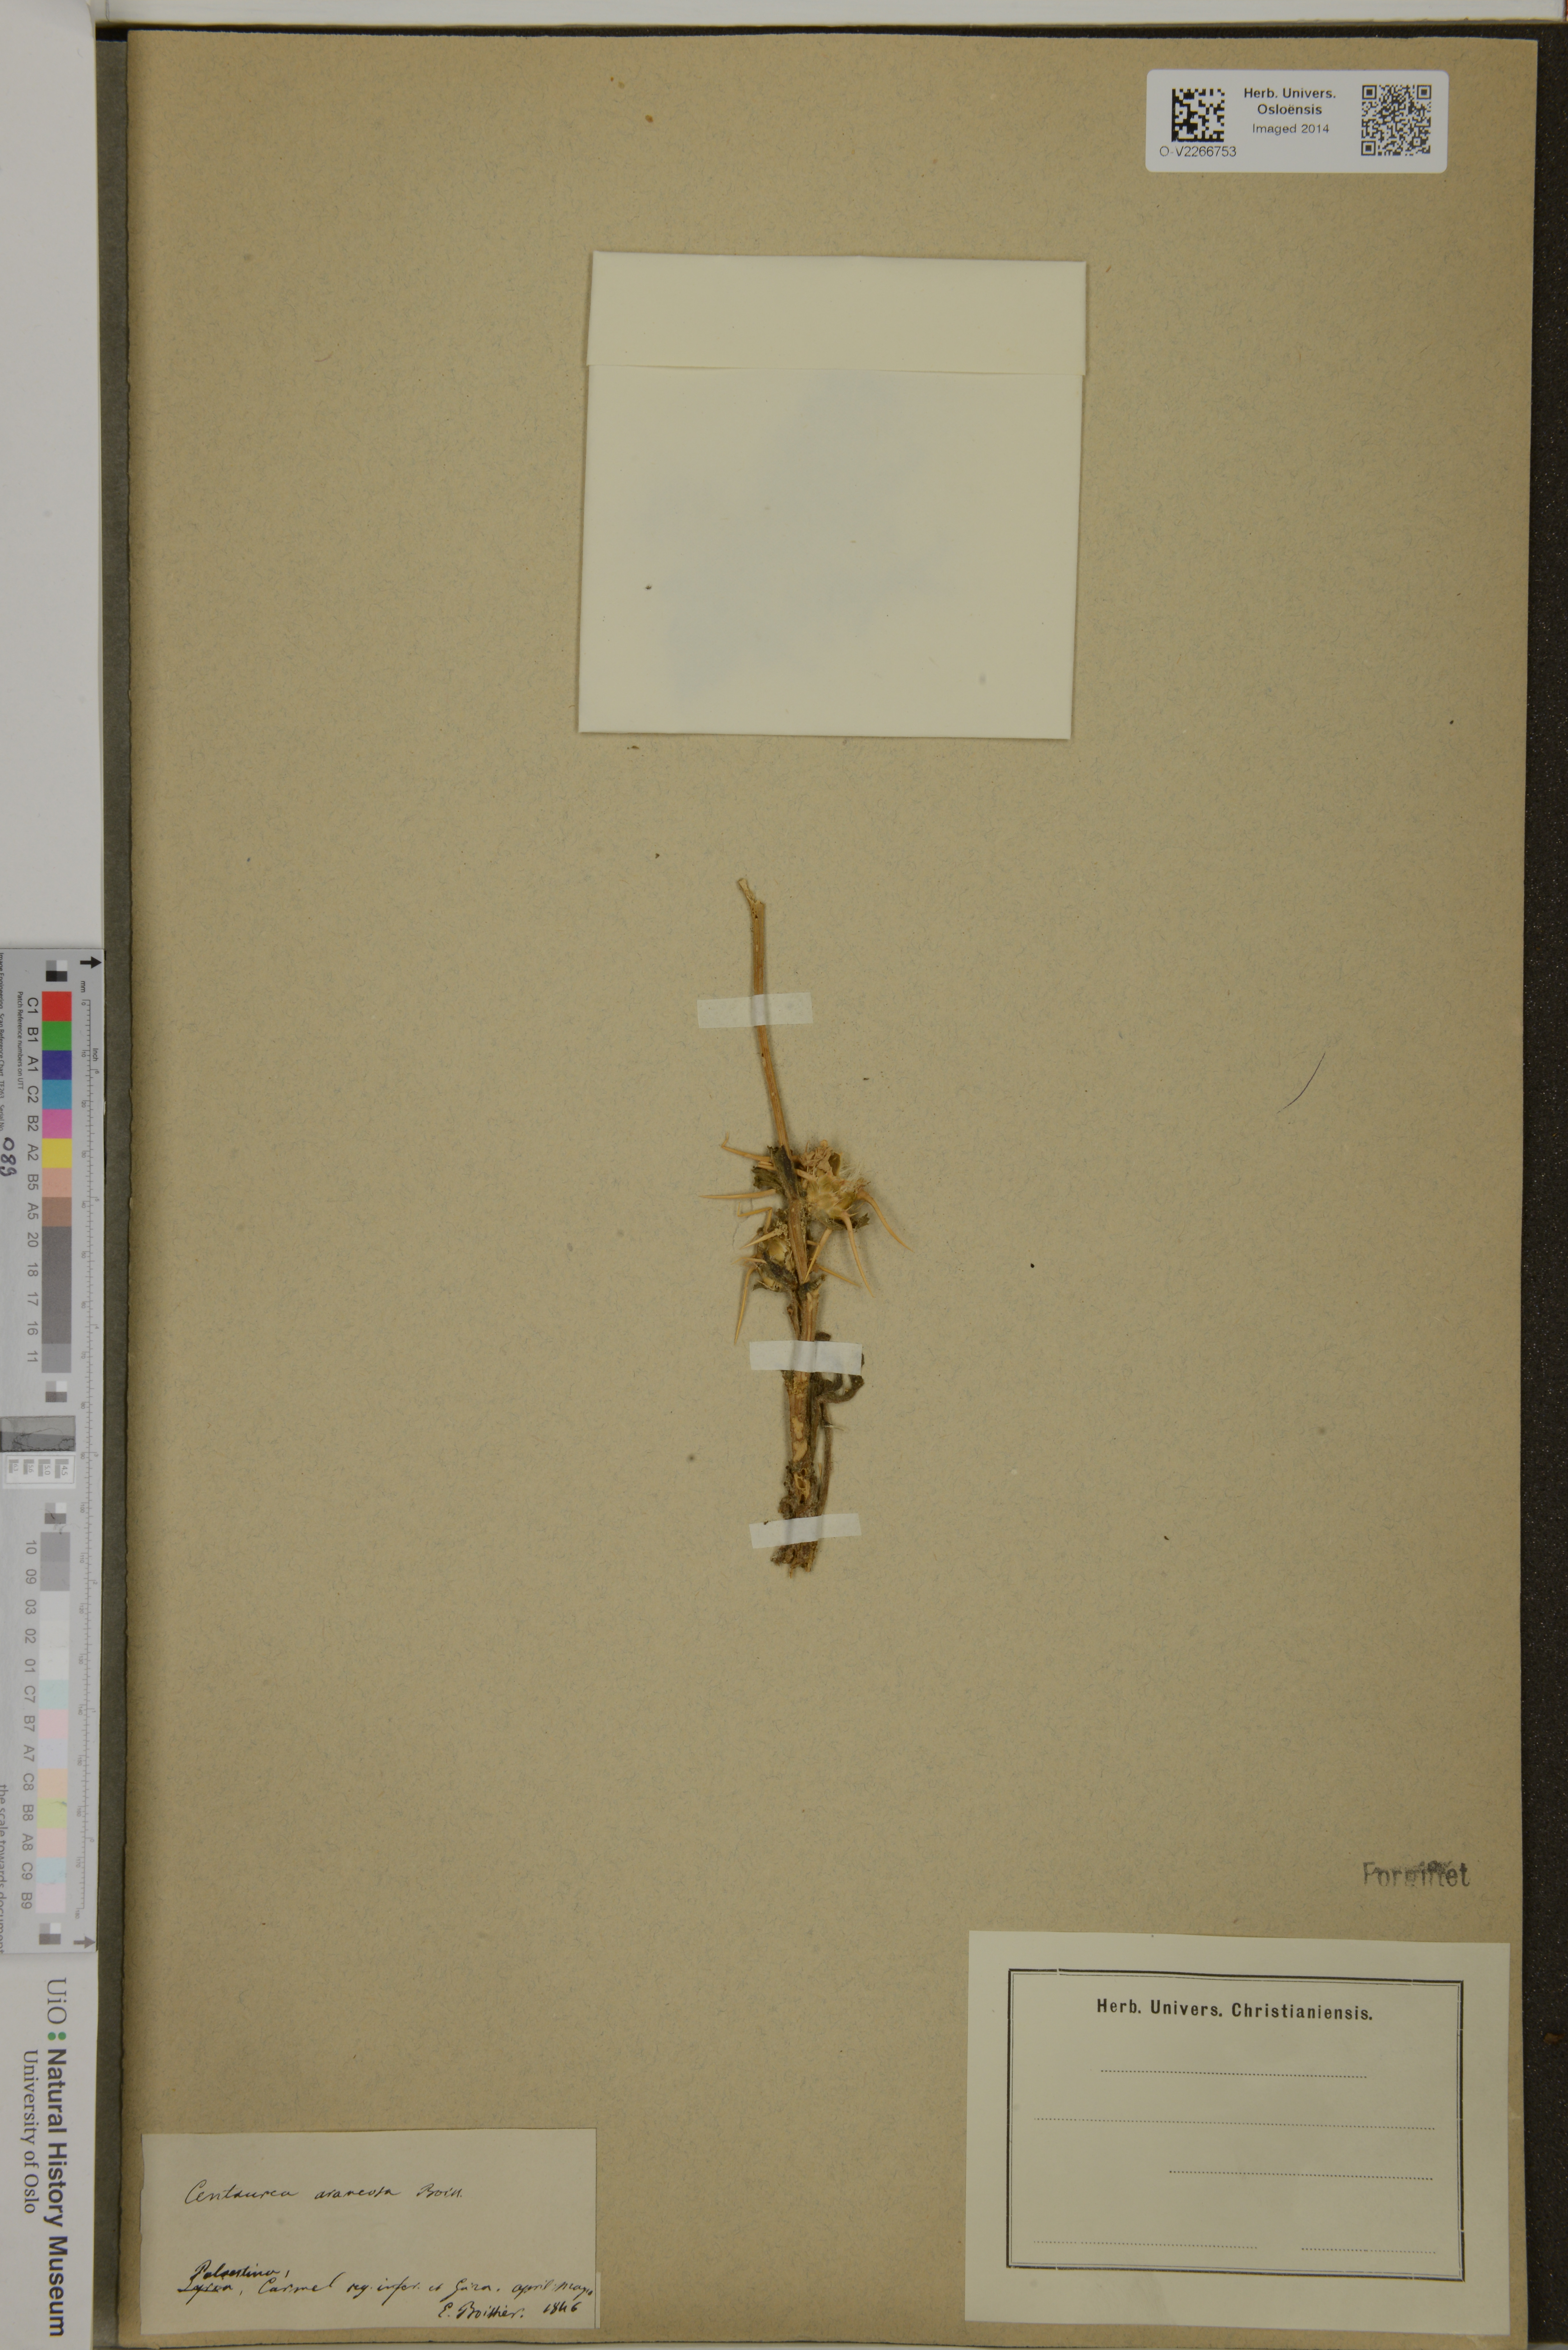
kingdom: Plantae
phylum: Tracheophyta
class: Magnoliopsida
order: Asterales
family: Asteraceae
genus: Centaurea
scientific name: Centaurea hellwigii
